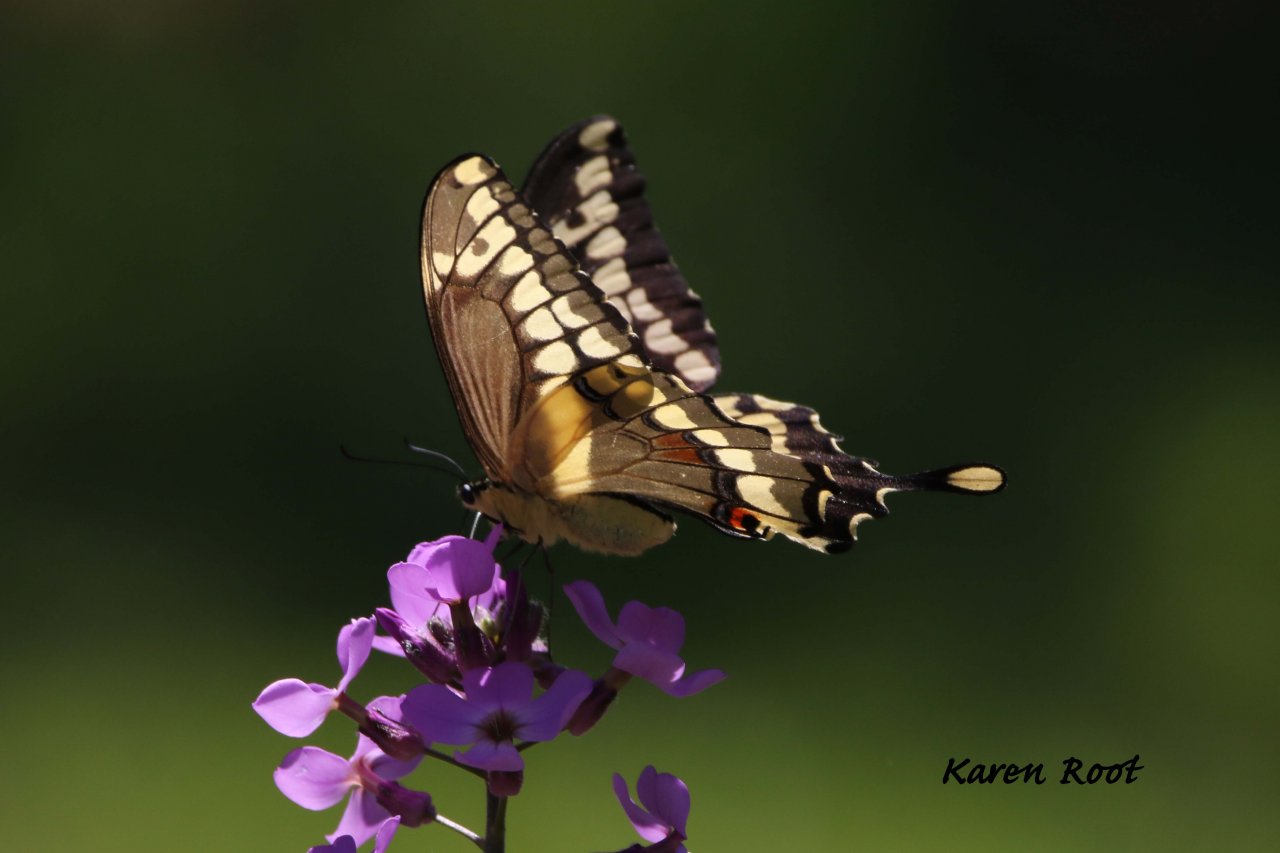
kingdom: Animalia
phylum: Arthropoda
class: Insecta
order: Lepidoptera
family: Papilionidae
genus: Papilio
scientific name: Papilio cresphontes
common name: Eastern Giant Swallowtail
